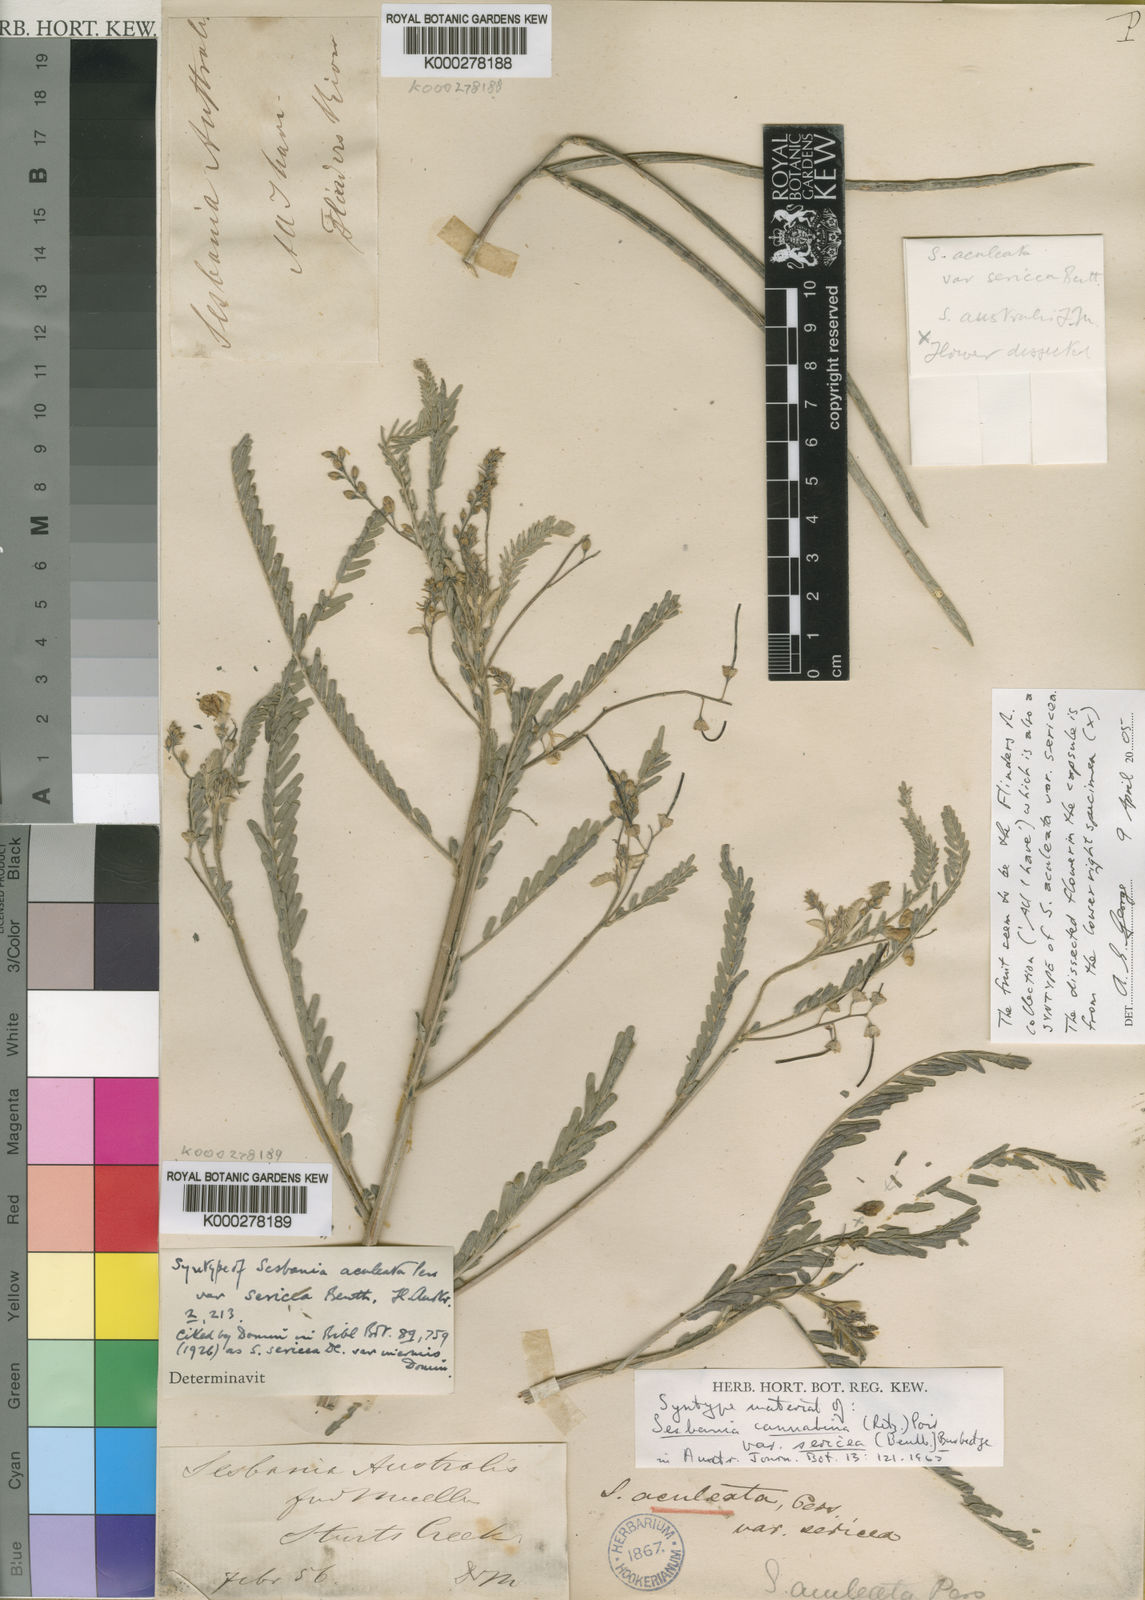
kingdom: Plantae
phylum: Tracheophyta
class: Magnoliopsida
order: Fabales
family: Fabaceae
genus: Sesbania
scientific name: Sesbania cannabina
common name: Canicha
